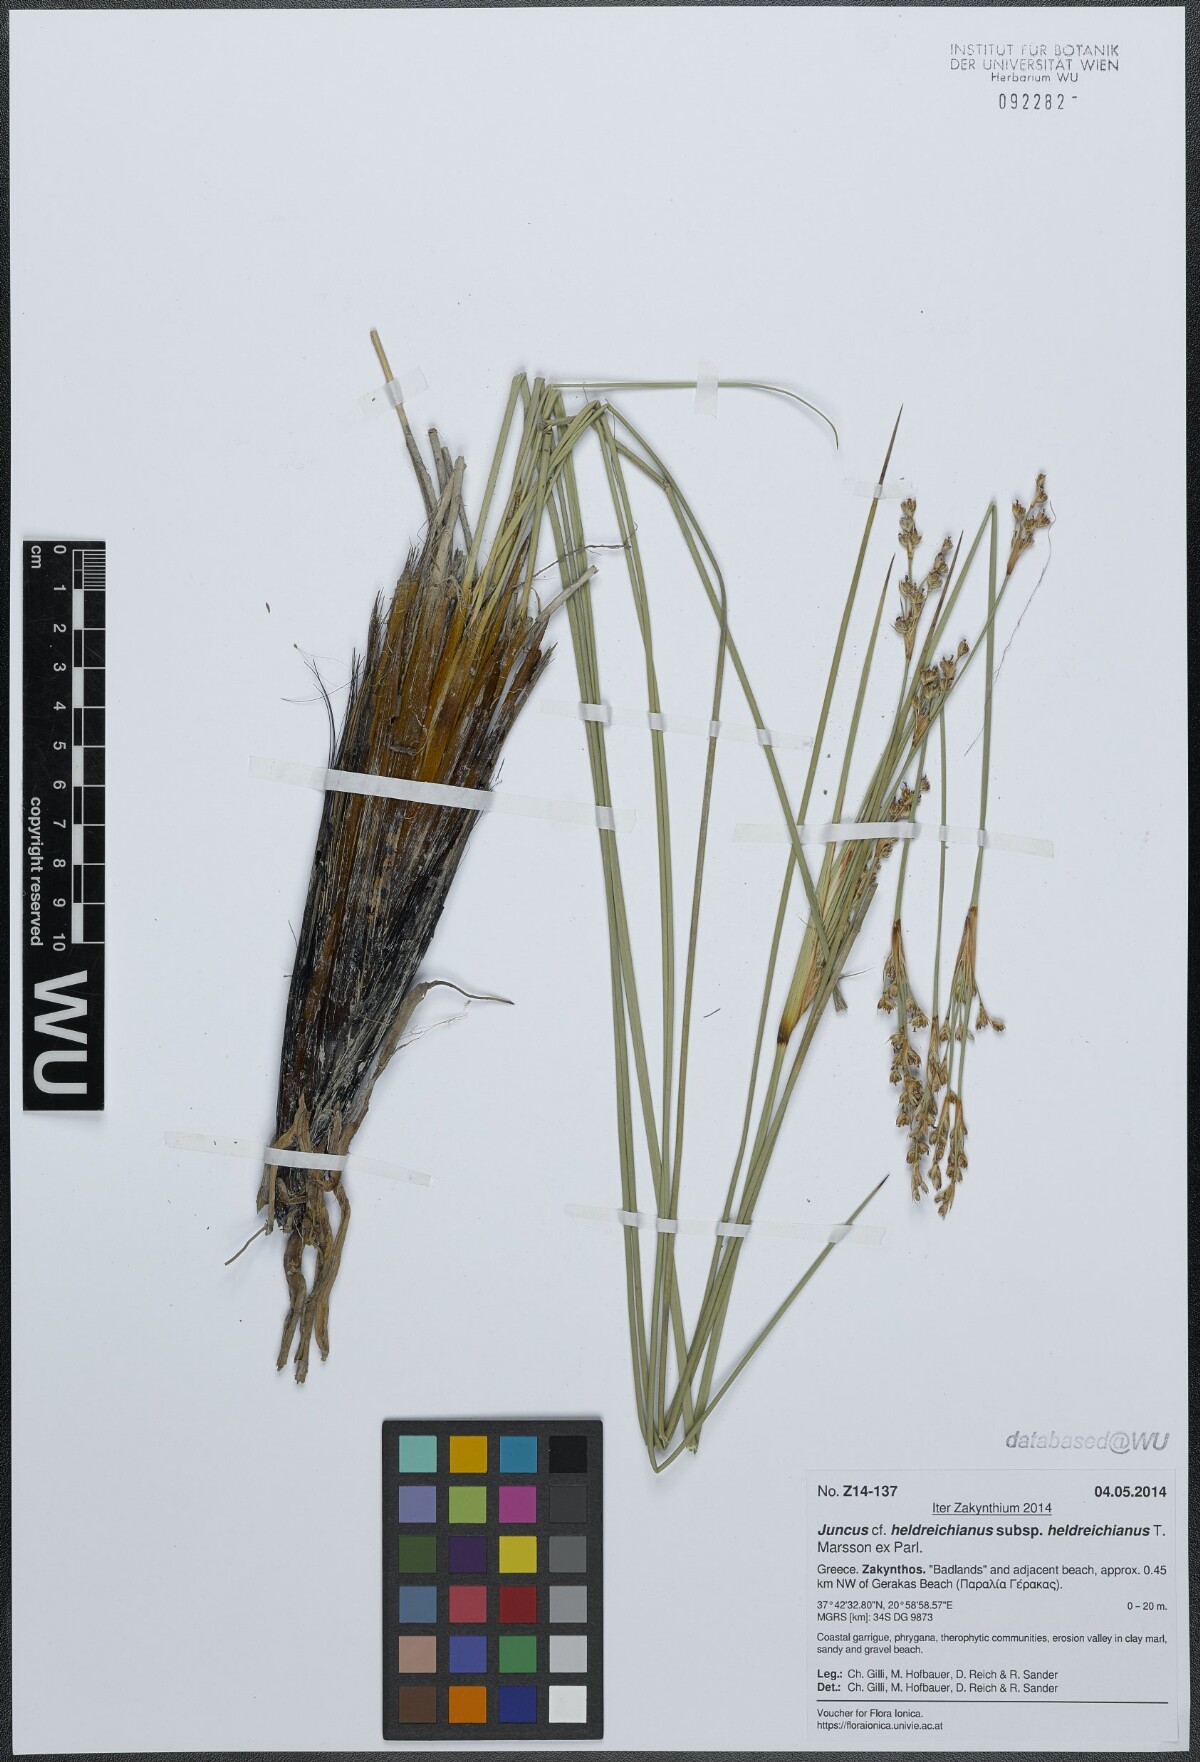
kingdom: Plantae
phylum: Tracheophyta
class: Liliopsida
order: Poales
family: Juncaceae
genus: Juncus
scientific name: Juncus heldreichianus
